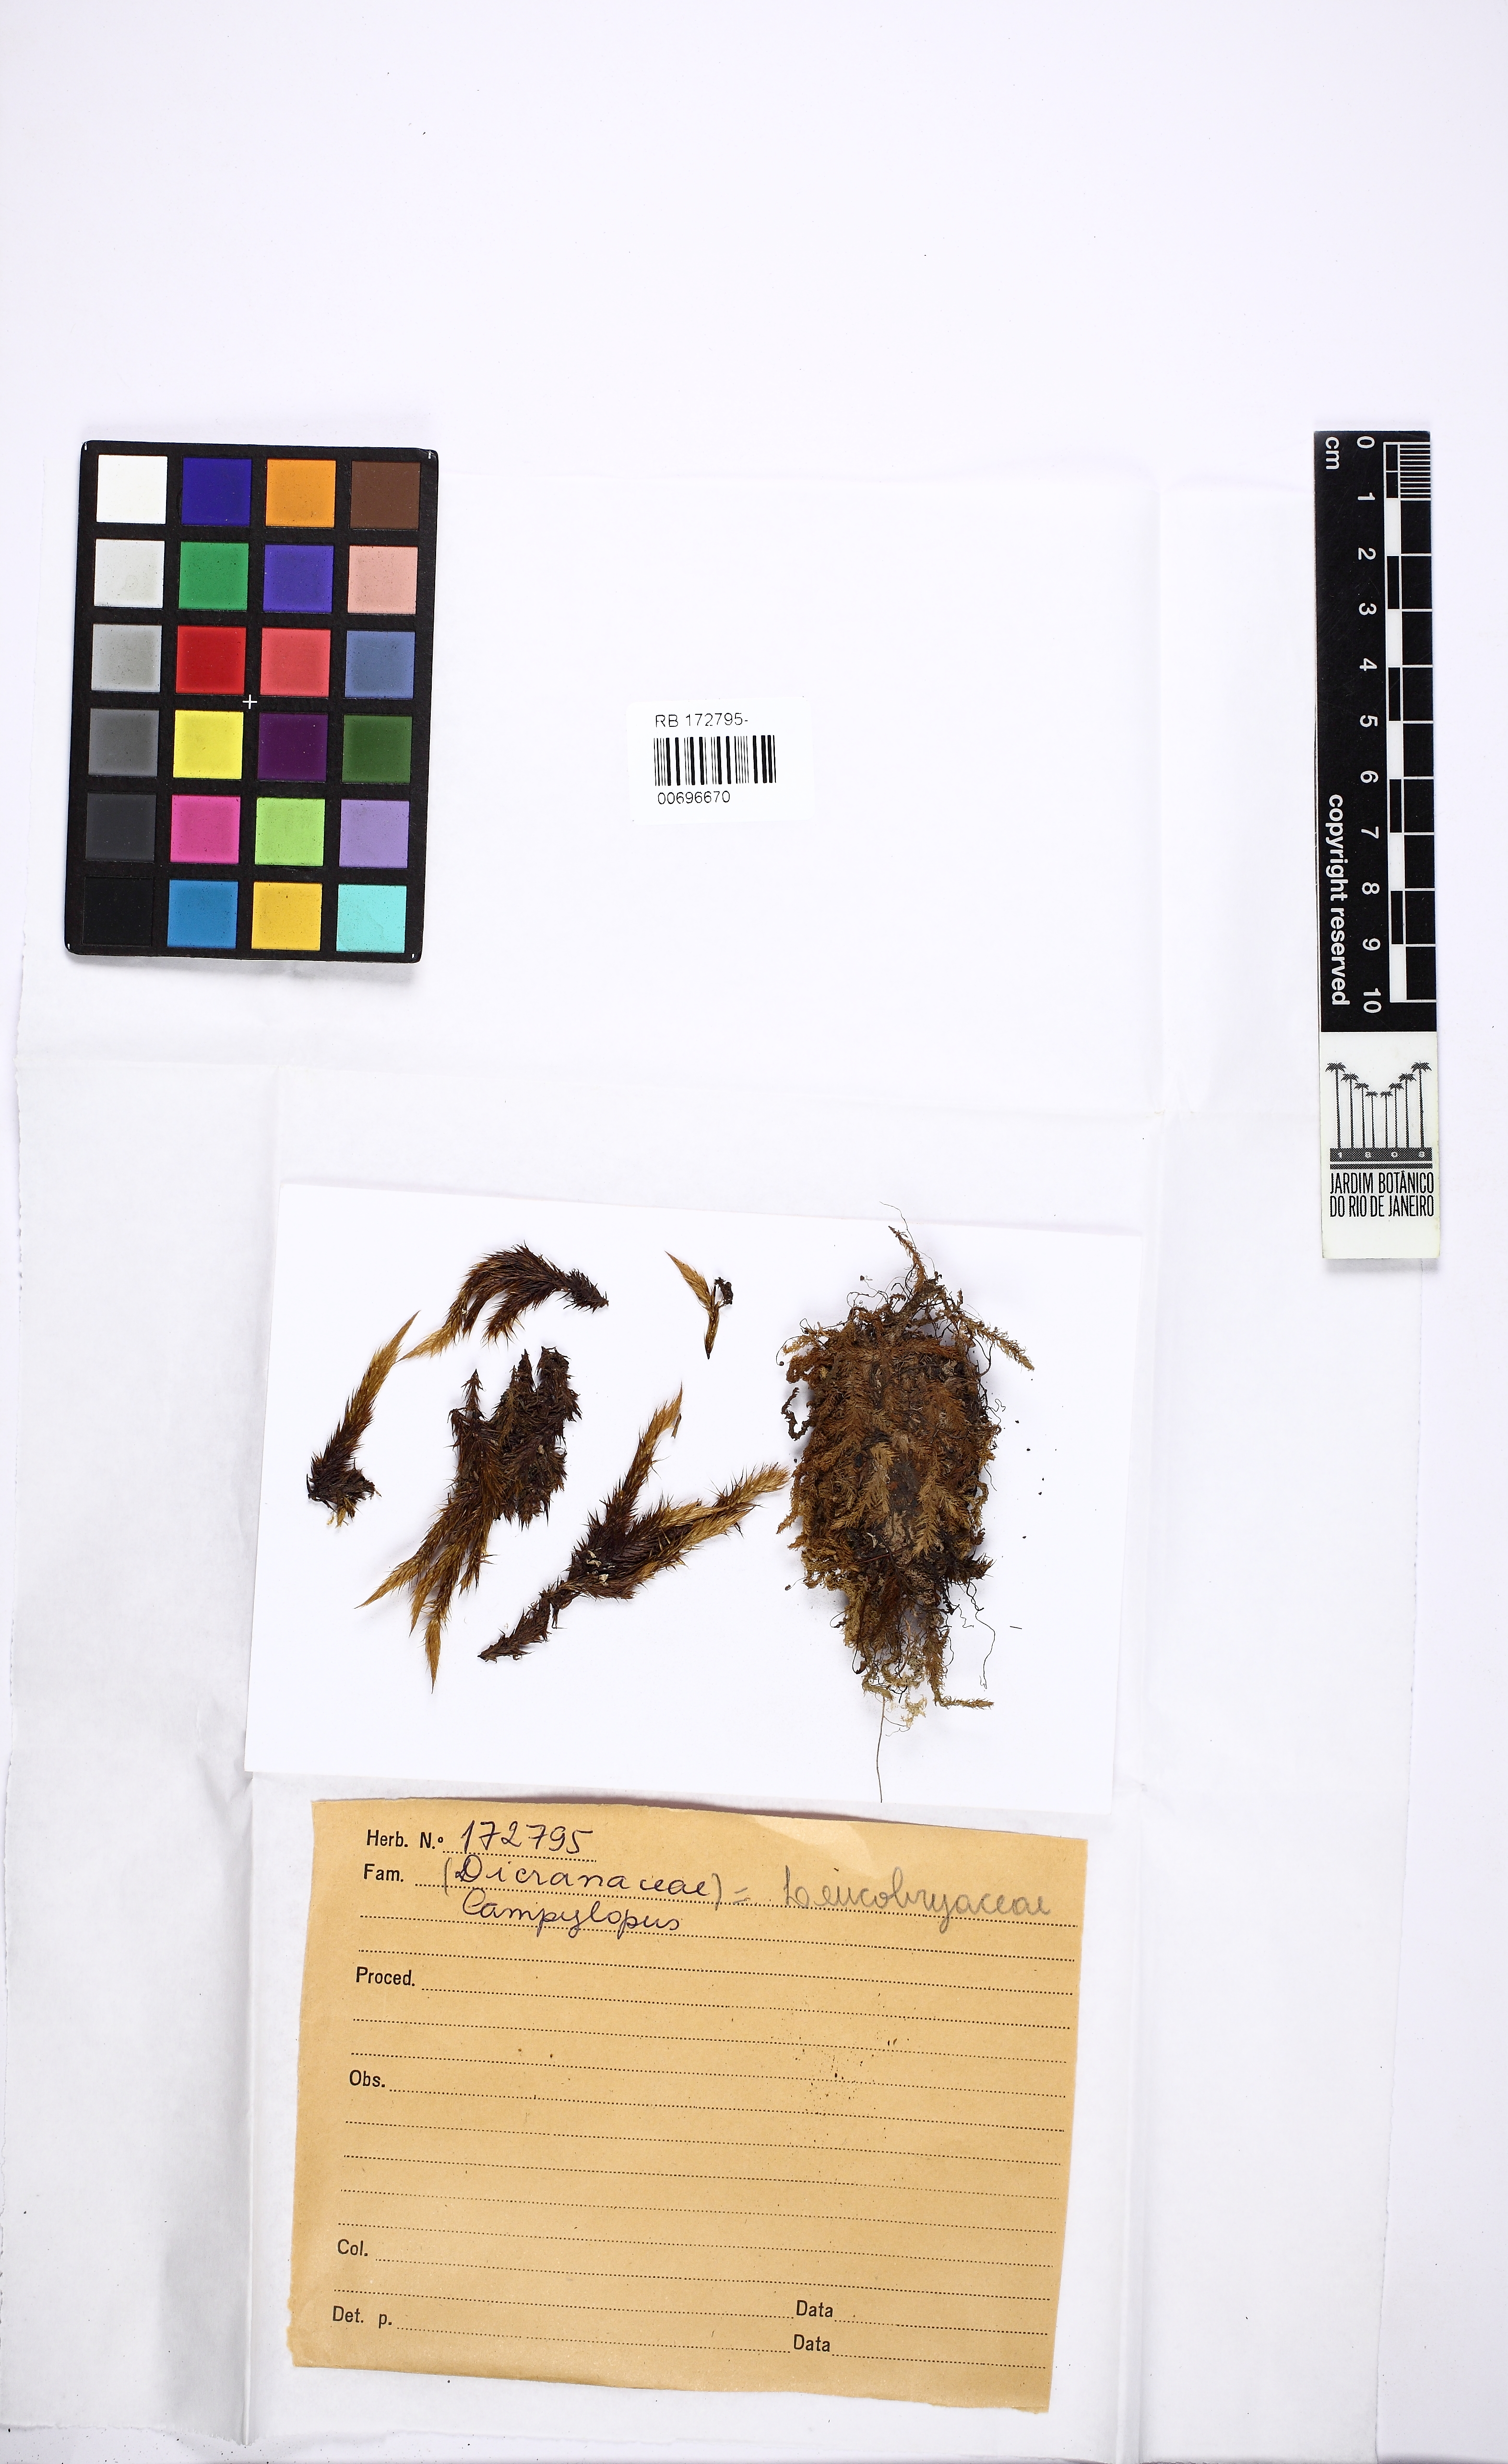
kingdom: Plantae
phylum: Bryophyta
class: Bryopsida
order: Dicranales
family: Leucobryaceae
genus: Campylopus
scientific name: Campylopus
